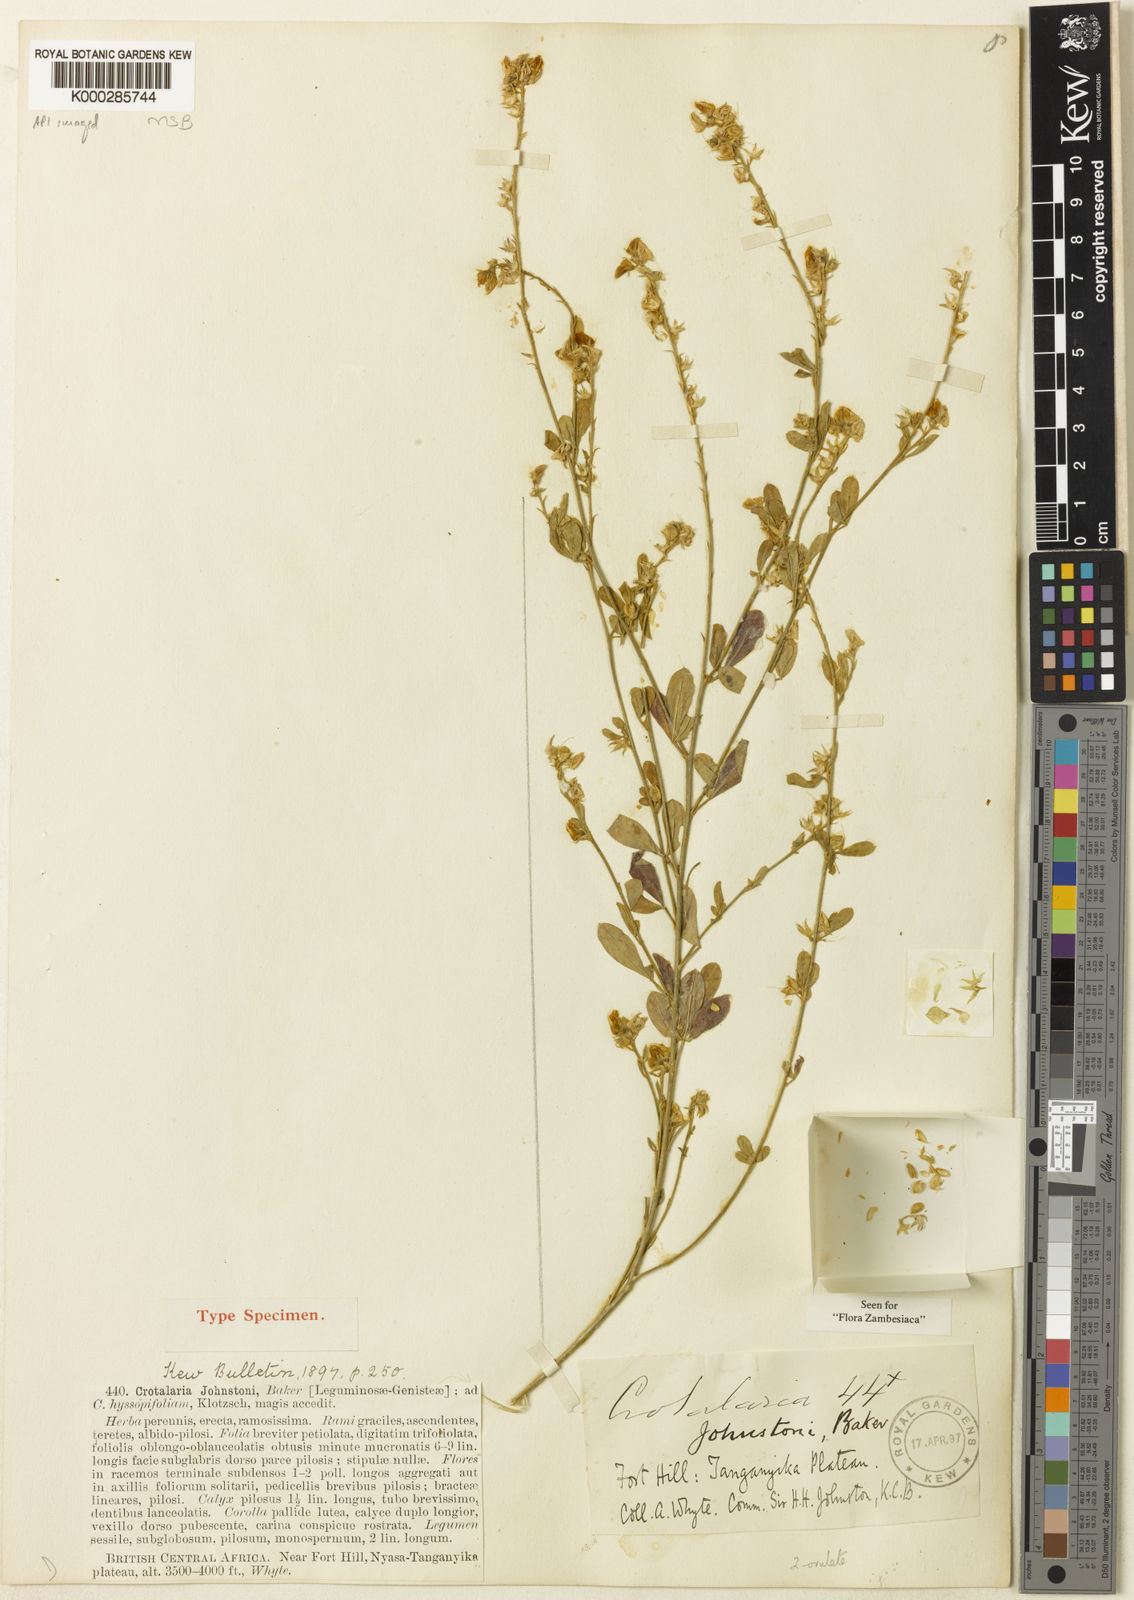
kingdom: Plantae
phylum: Tracheophyta
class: Magnoliopsida
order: Fabales
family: Fabaceae
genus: Crotalaria
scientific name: Crotalaria johnstonii
